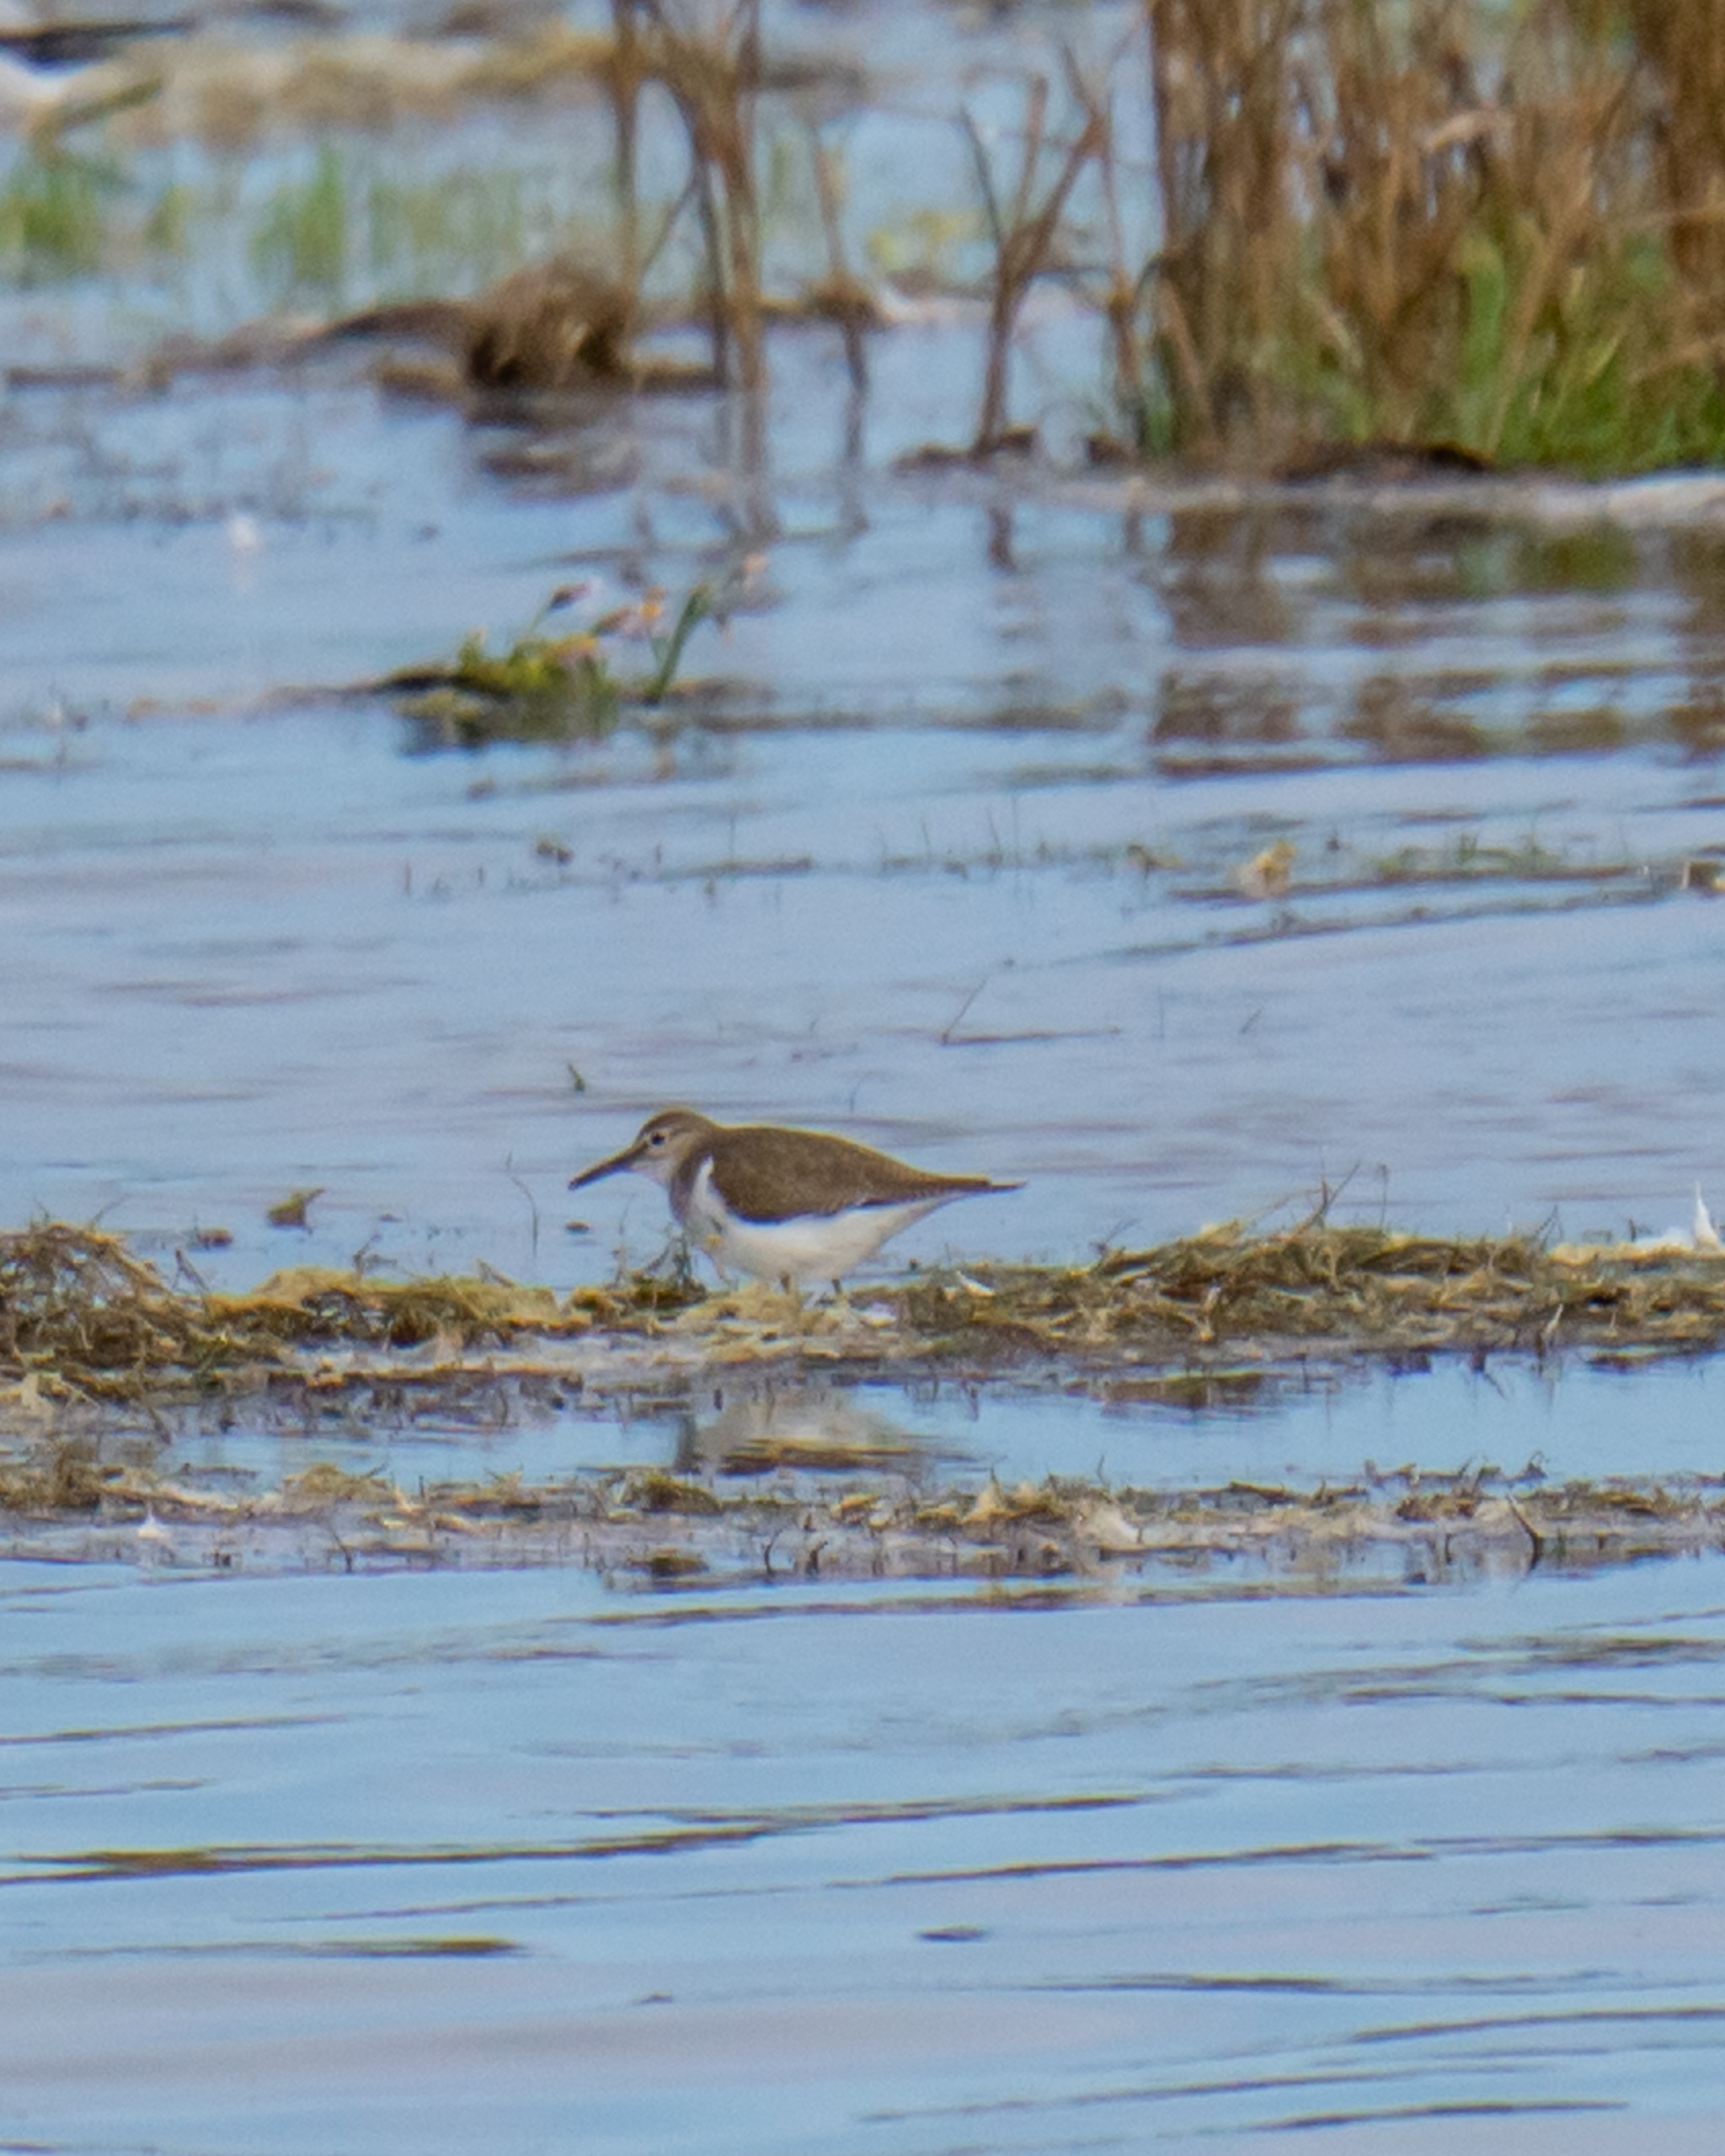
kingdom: Animalia
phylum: Chordata
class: Aves
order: Charadriiformes
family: Scolopacidae
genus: Actitis
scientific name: Actitis hypoleucos
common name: Mudderklire
